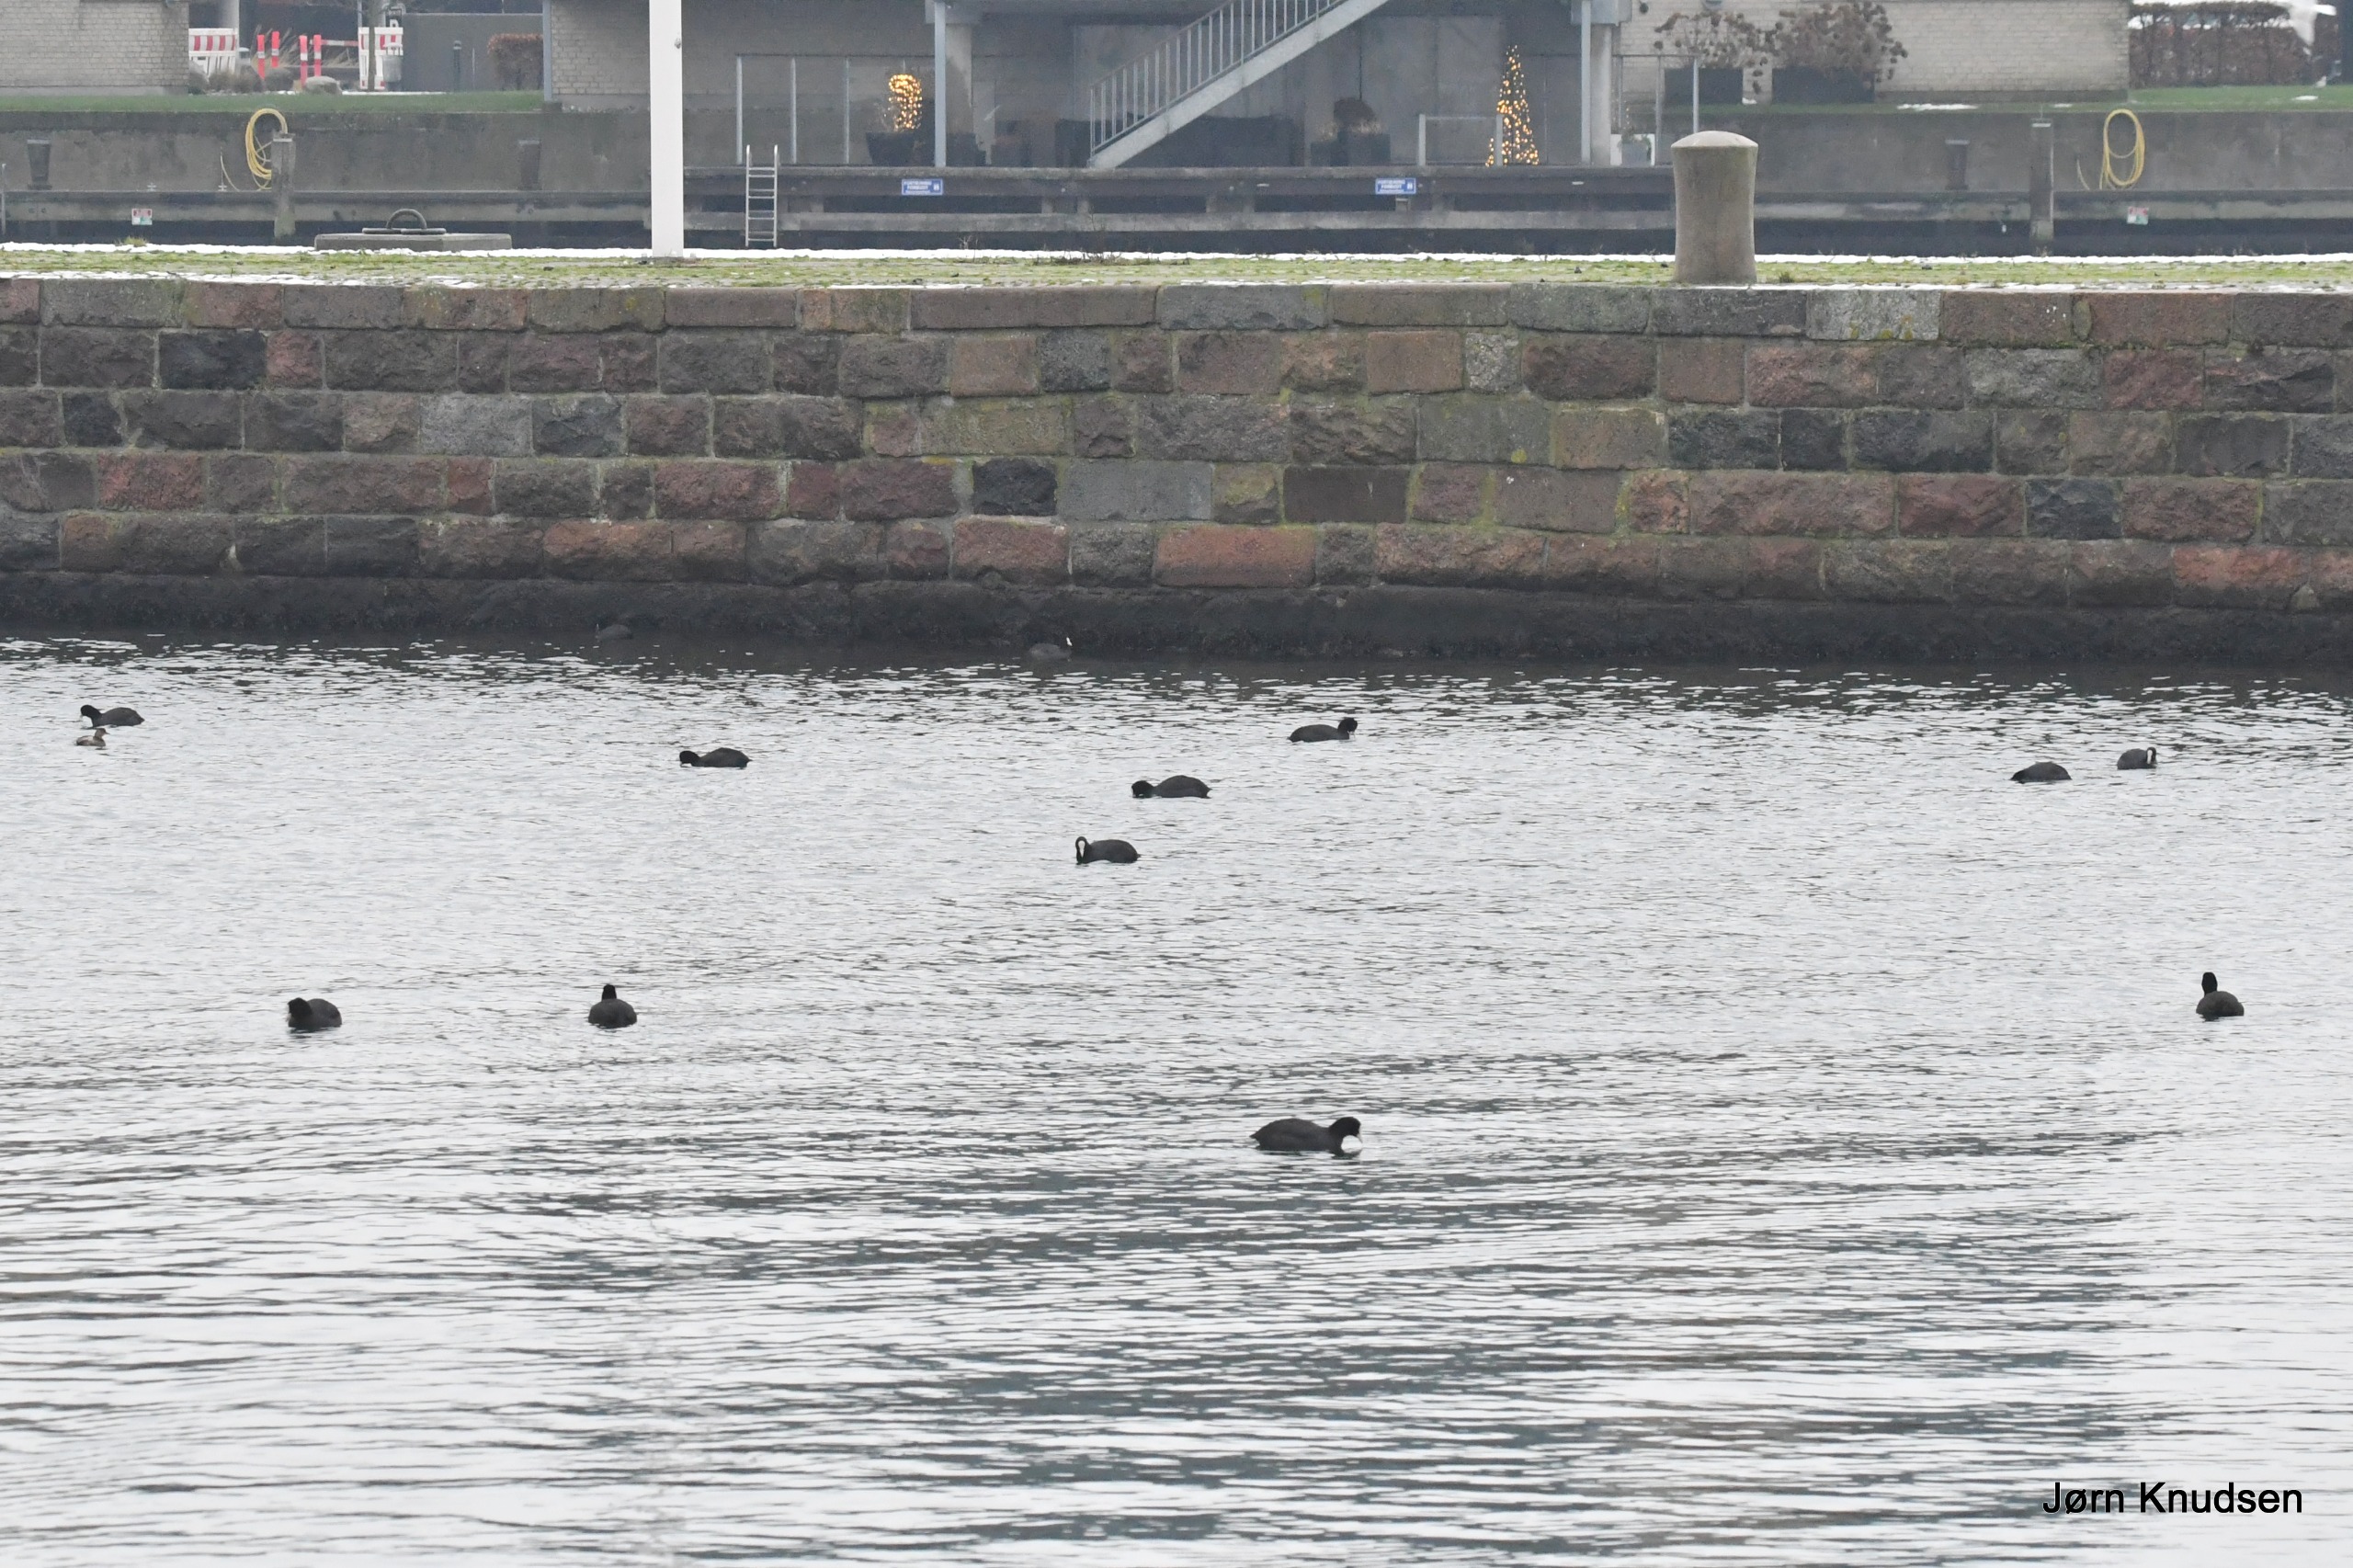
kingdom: Animalia
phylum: Chordata
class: Aves
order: Gruiformes
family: Rallidae
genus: Fulica
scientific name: Fulica atra
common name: Blishøne
